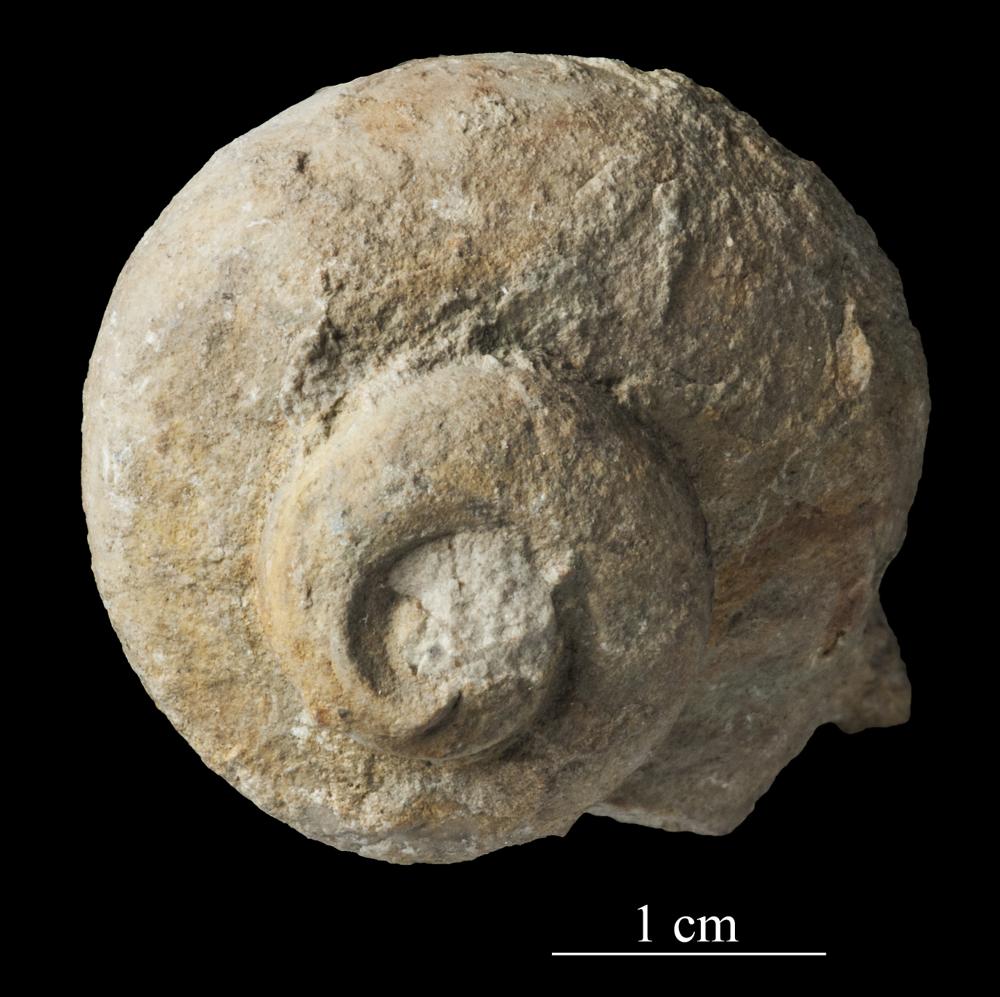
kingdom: Animalia
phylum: Mollusca
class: Gastropoda
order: Trochida
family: Turbinidae
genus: Turbo
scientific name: Turbo
